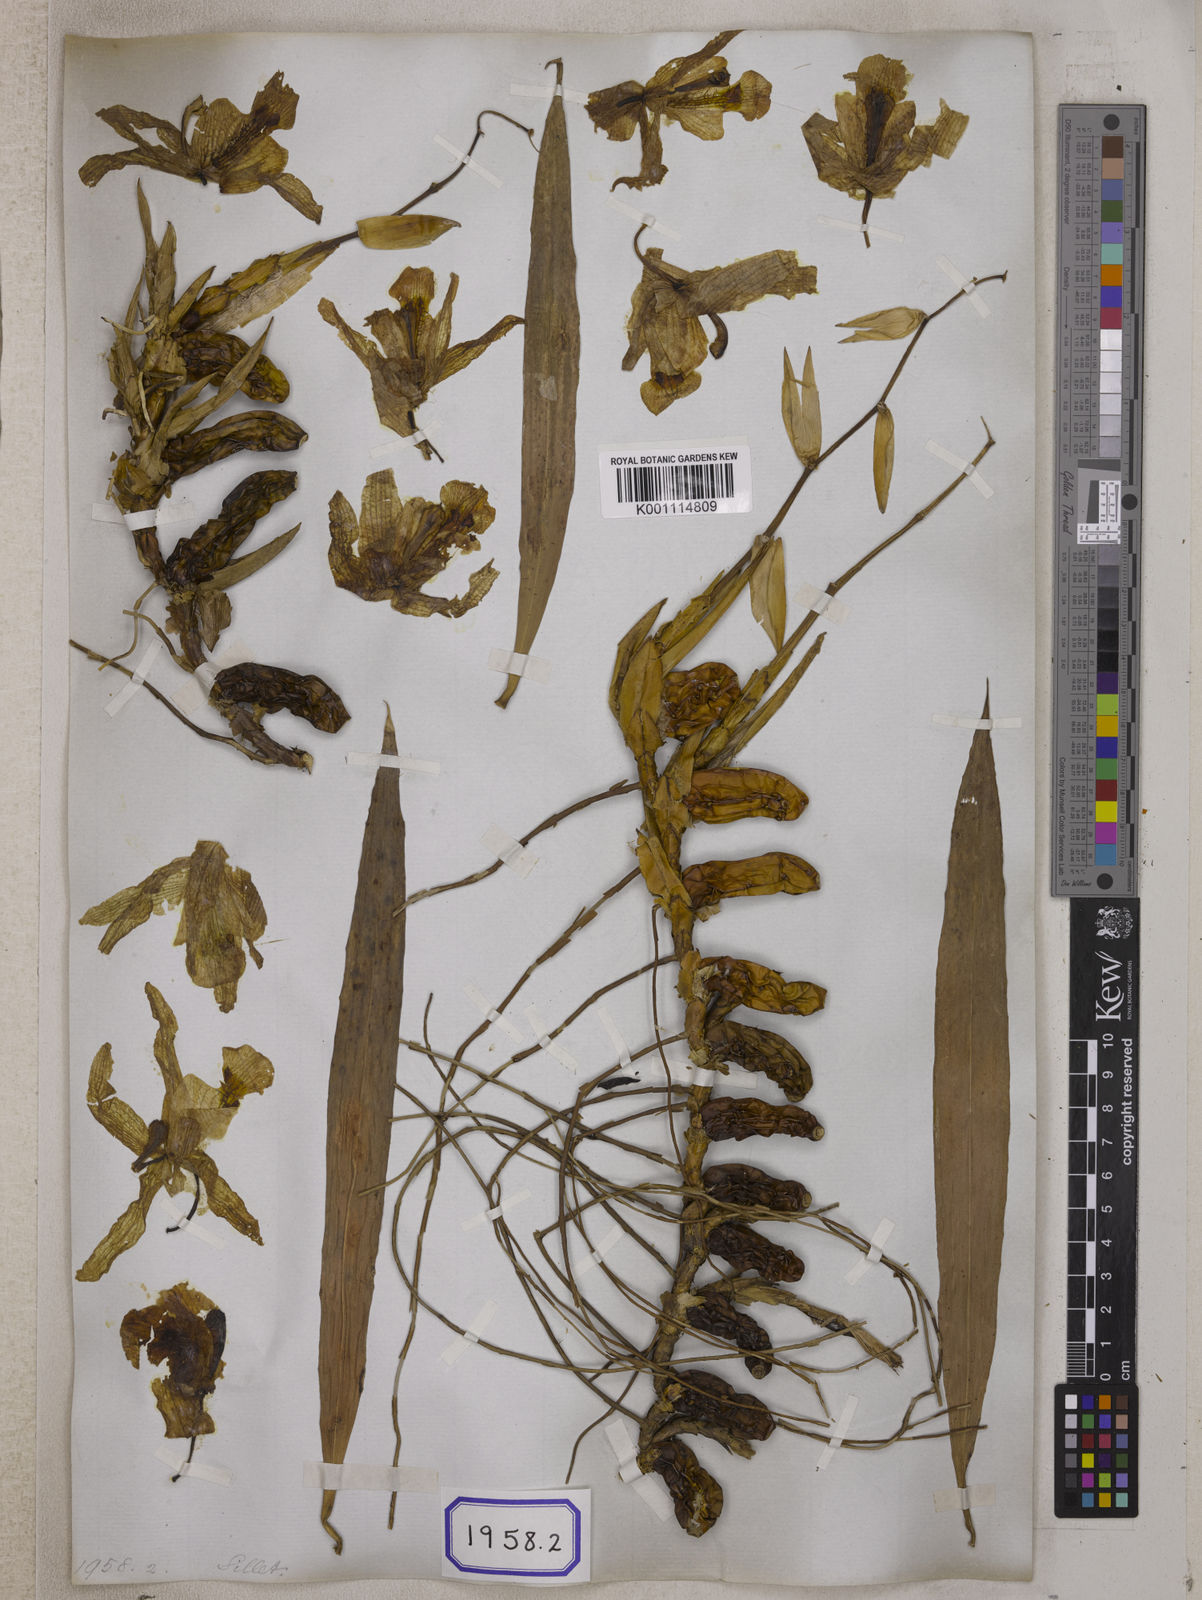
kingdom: Plantae
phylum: Tracheophyta
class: Liliopsida
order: Asparagales
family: Orchidaceae
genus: Coelogyne
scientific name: Coelogyne cristata
